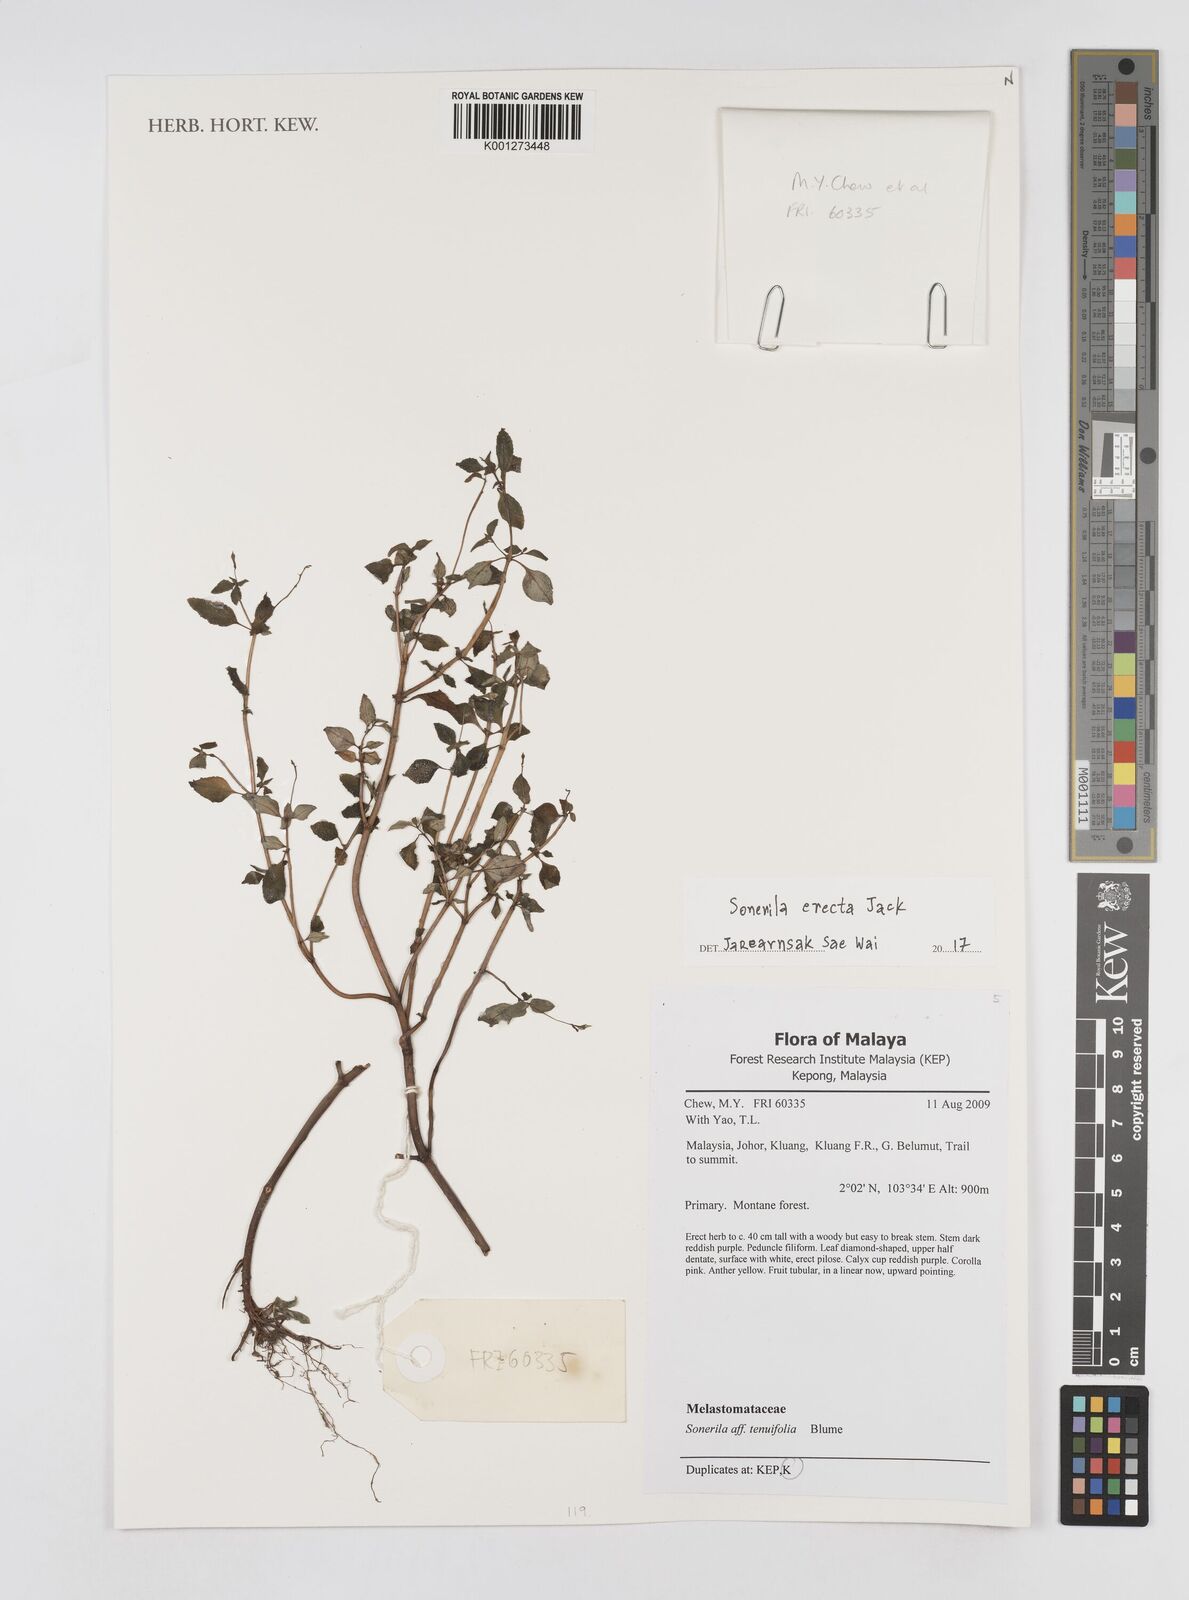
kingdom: Plantae
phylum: Tracheophyta
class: Magnoliopsida
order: Myrtales
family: Melastomataceae
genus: Sonerila
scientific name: Sonerila erecta
